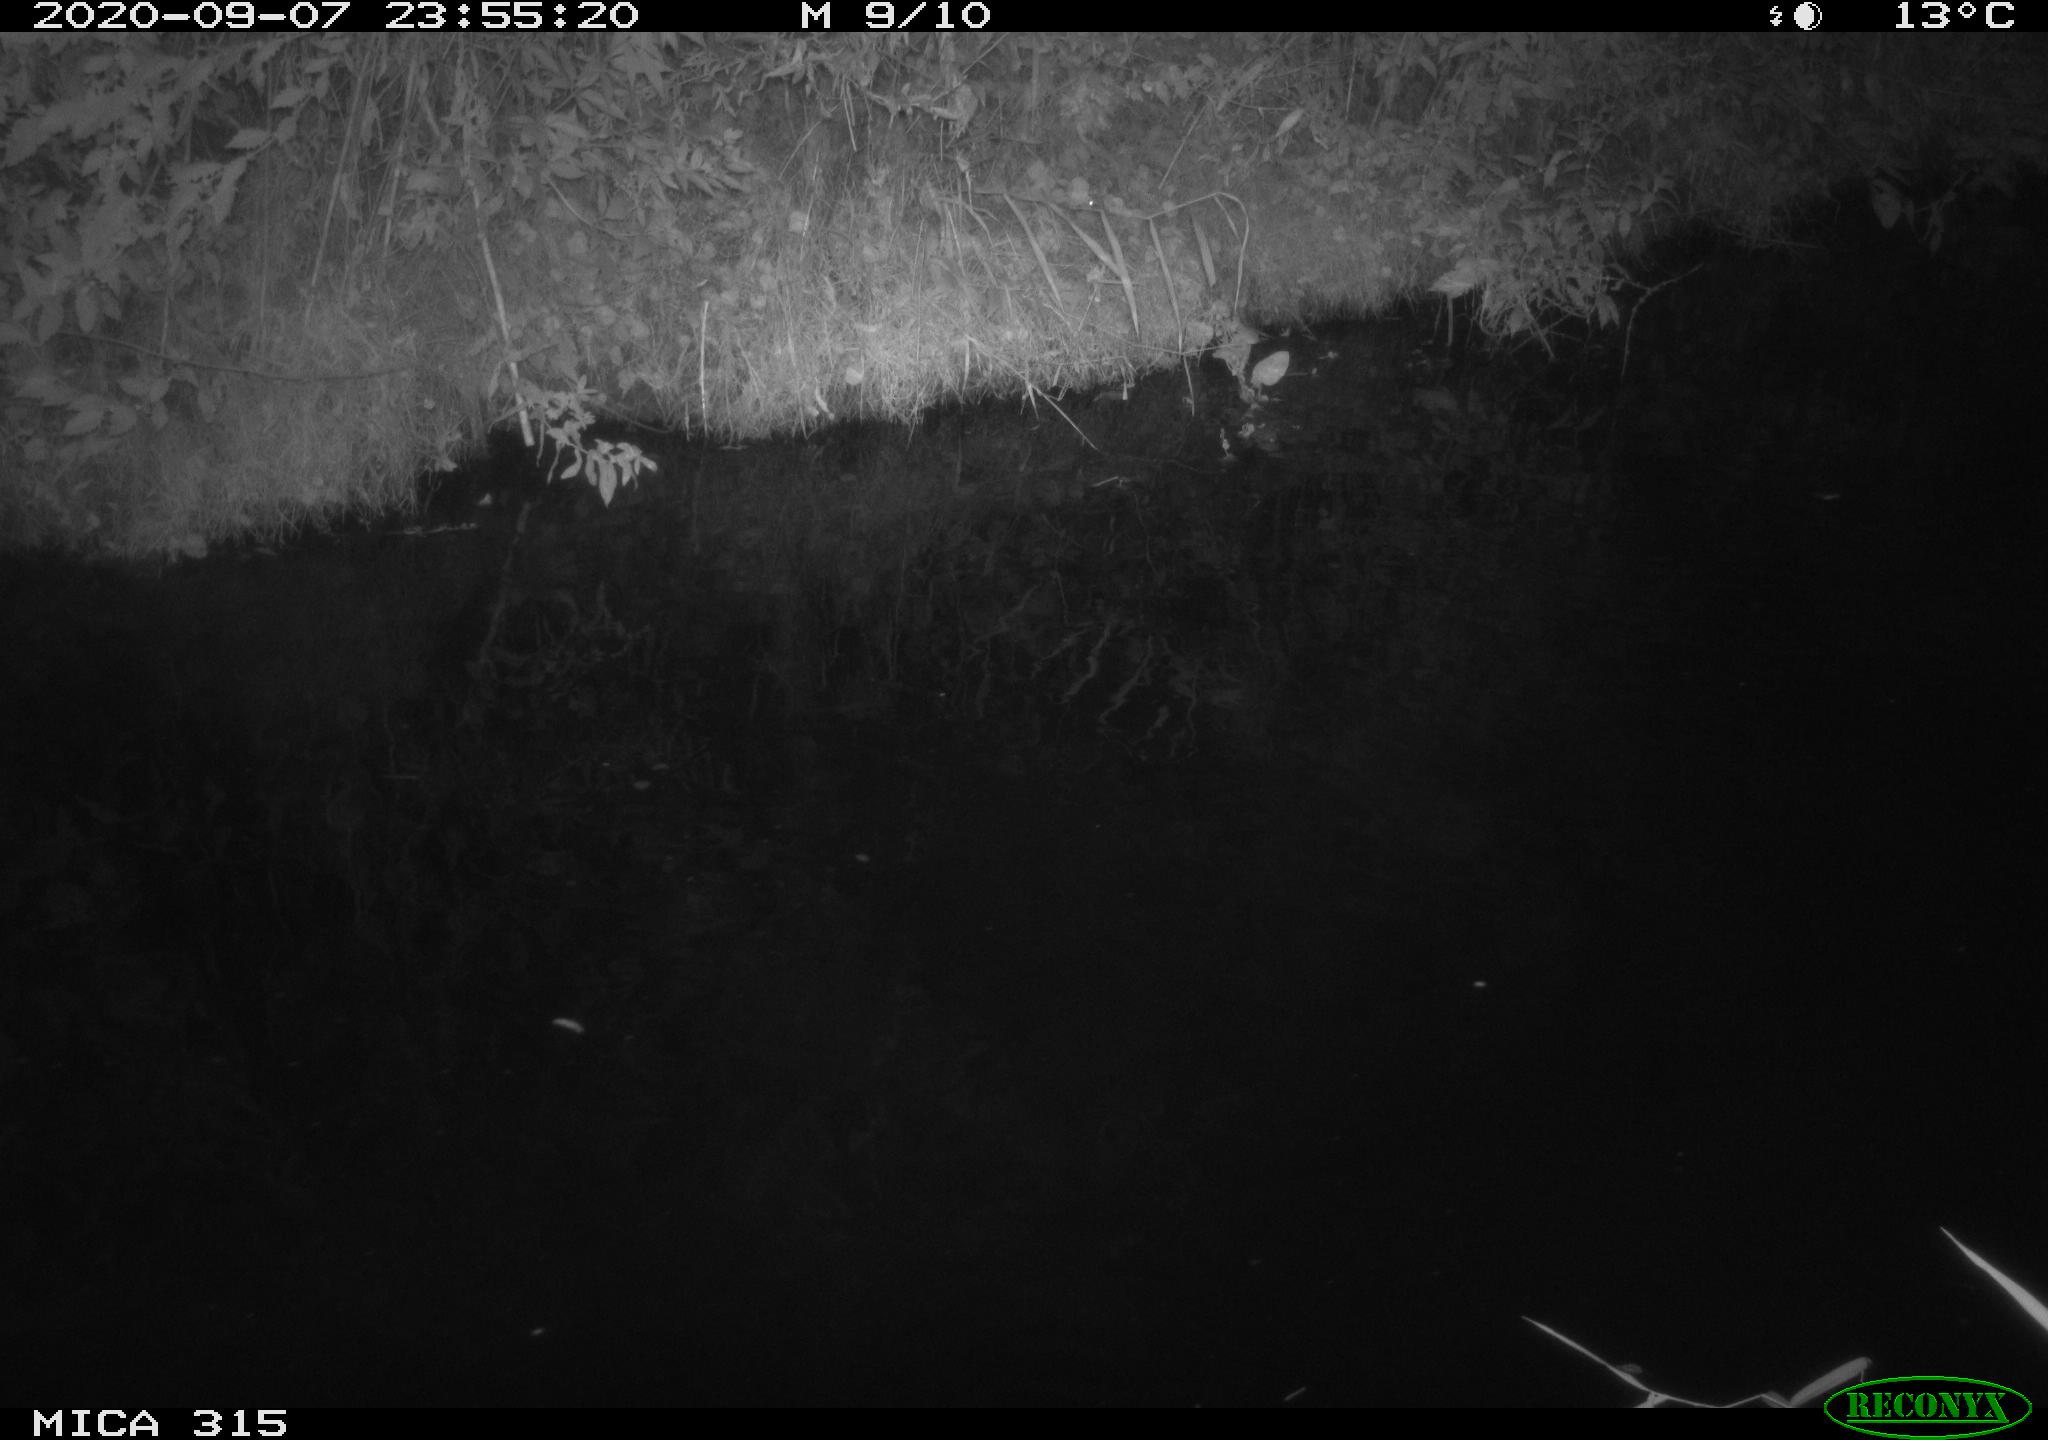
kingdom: Animalia
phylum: Chordata
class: Aves
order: Anseriformes
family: Anatidae
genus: Anas
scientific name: Anas platyrhynchos
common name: Mallard
